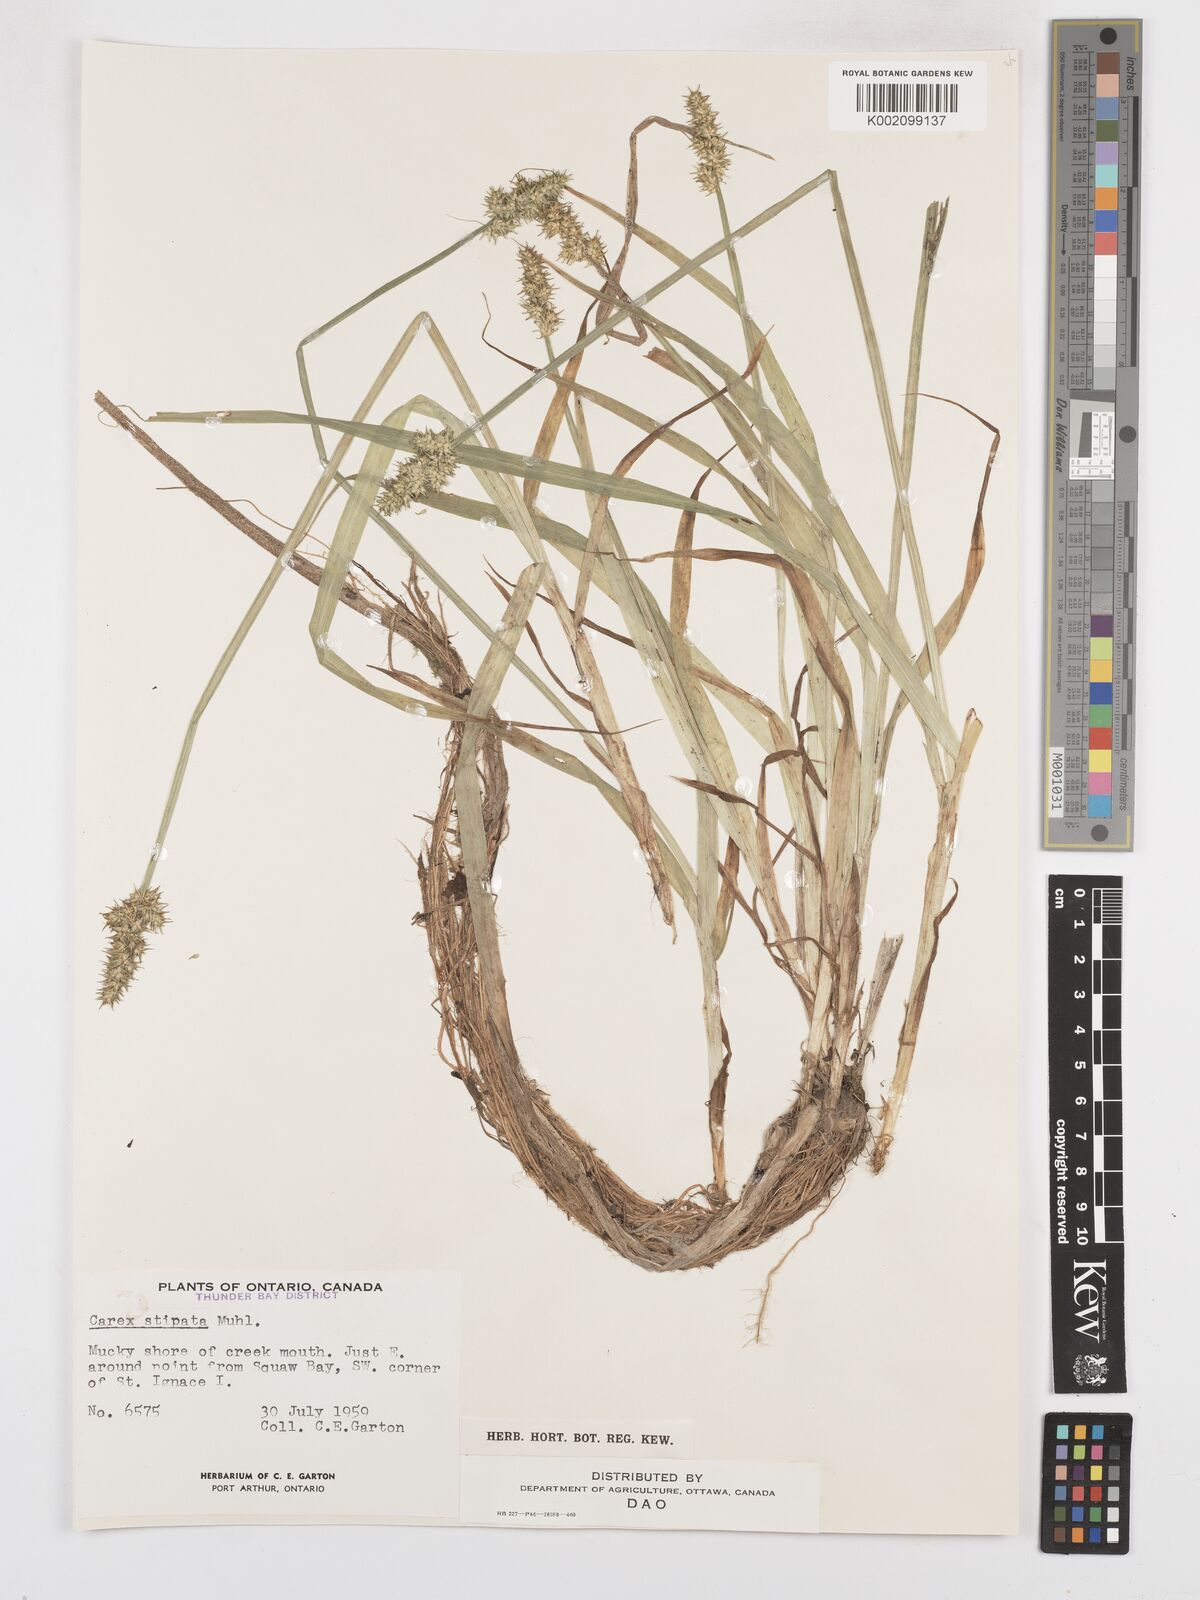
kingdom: Plantae
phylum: Tracheophyta
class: Liliopsida
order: Poales
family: Cyperaceae
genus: Carex
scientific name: Carex stipata
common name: Awl-fruited sedge
